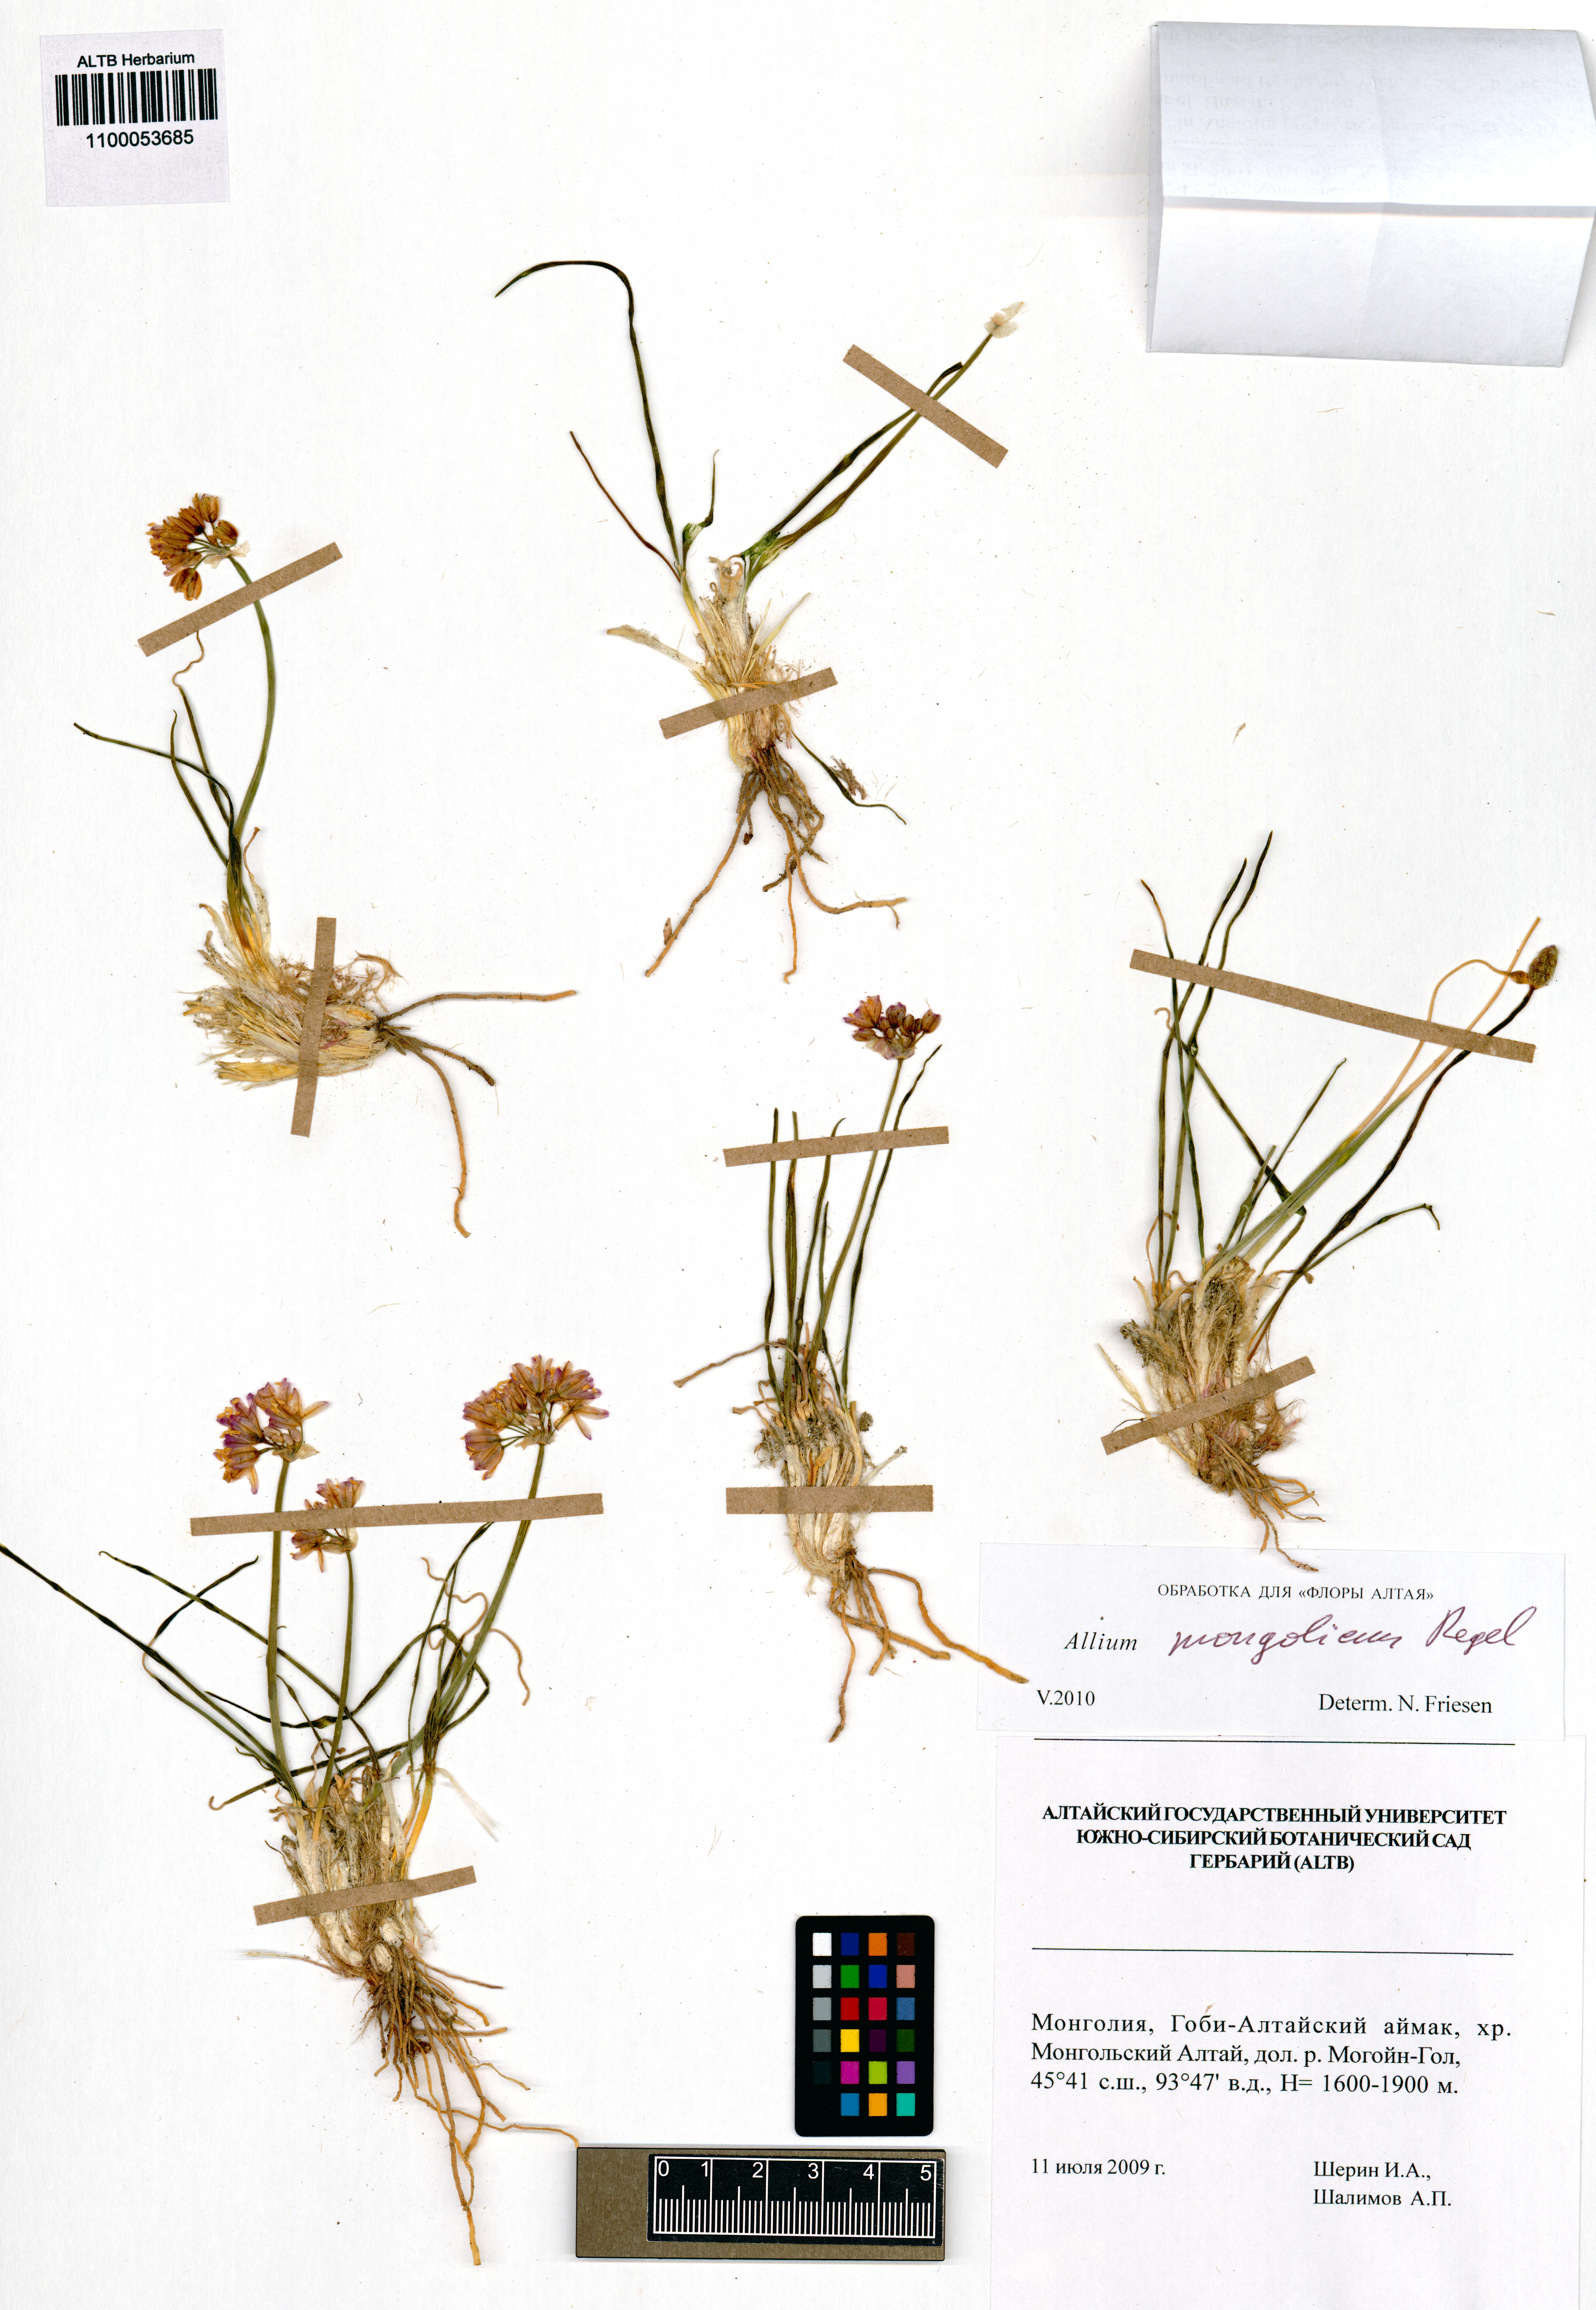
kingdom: Plantae
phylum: Tracheophyta
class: Liliopsida
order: Asparagales
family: Amaryllidaceae
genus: Allium
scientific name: Allium mongolicum
